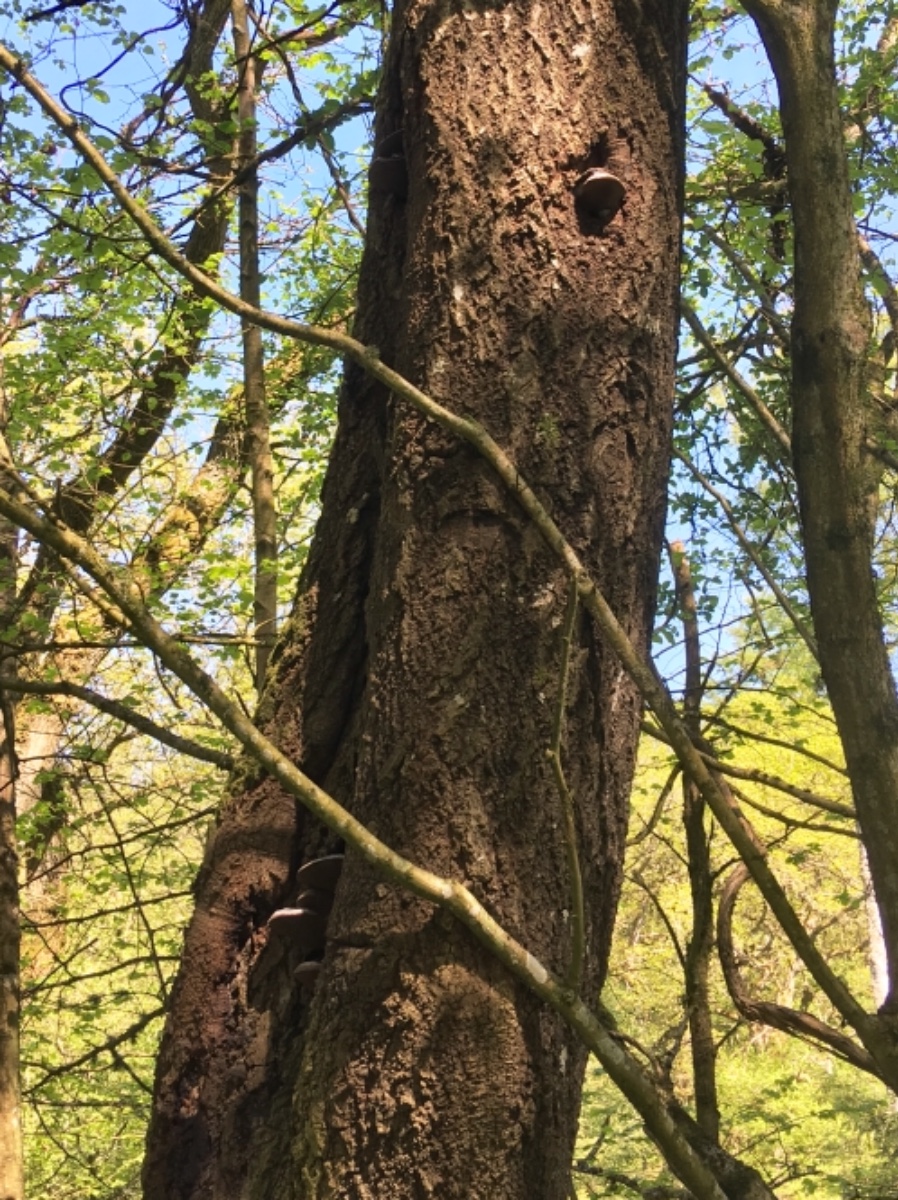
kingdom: Fungi
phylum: Basidiomycota
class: Agaricomycetes
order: Hymenochaetales
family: Hymenochaetaceae
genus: Phellinus
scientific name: Phellinus tremulae
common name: aspe-ildporesvamp
